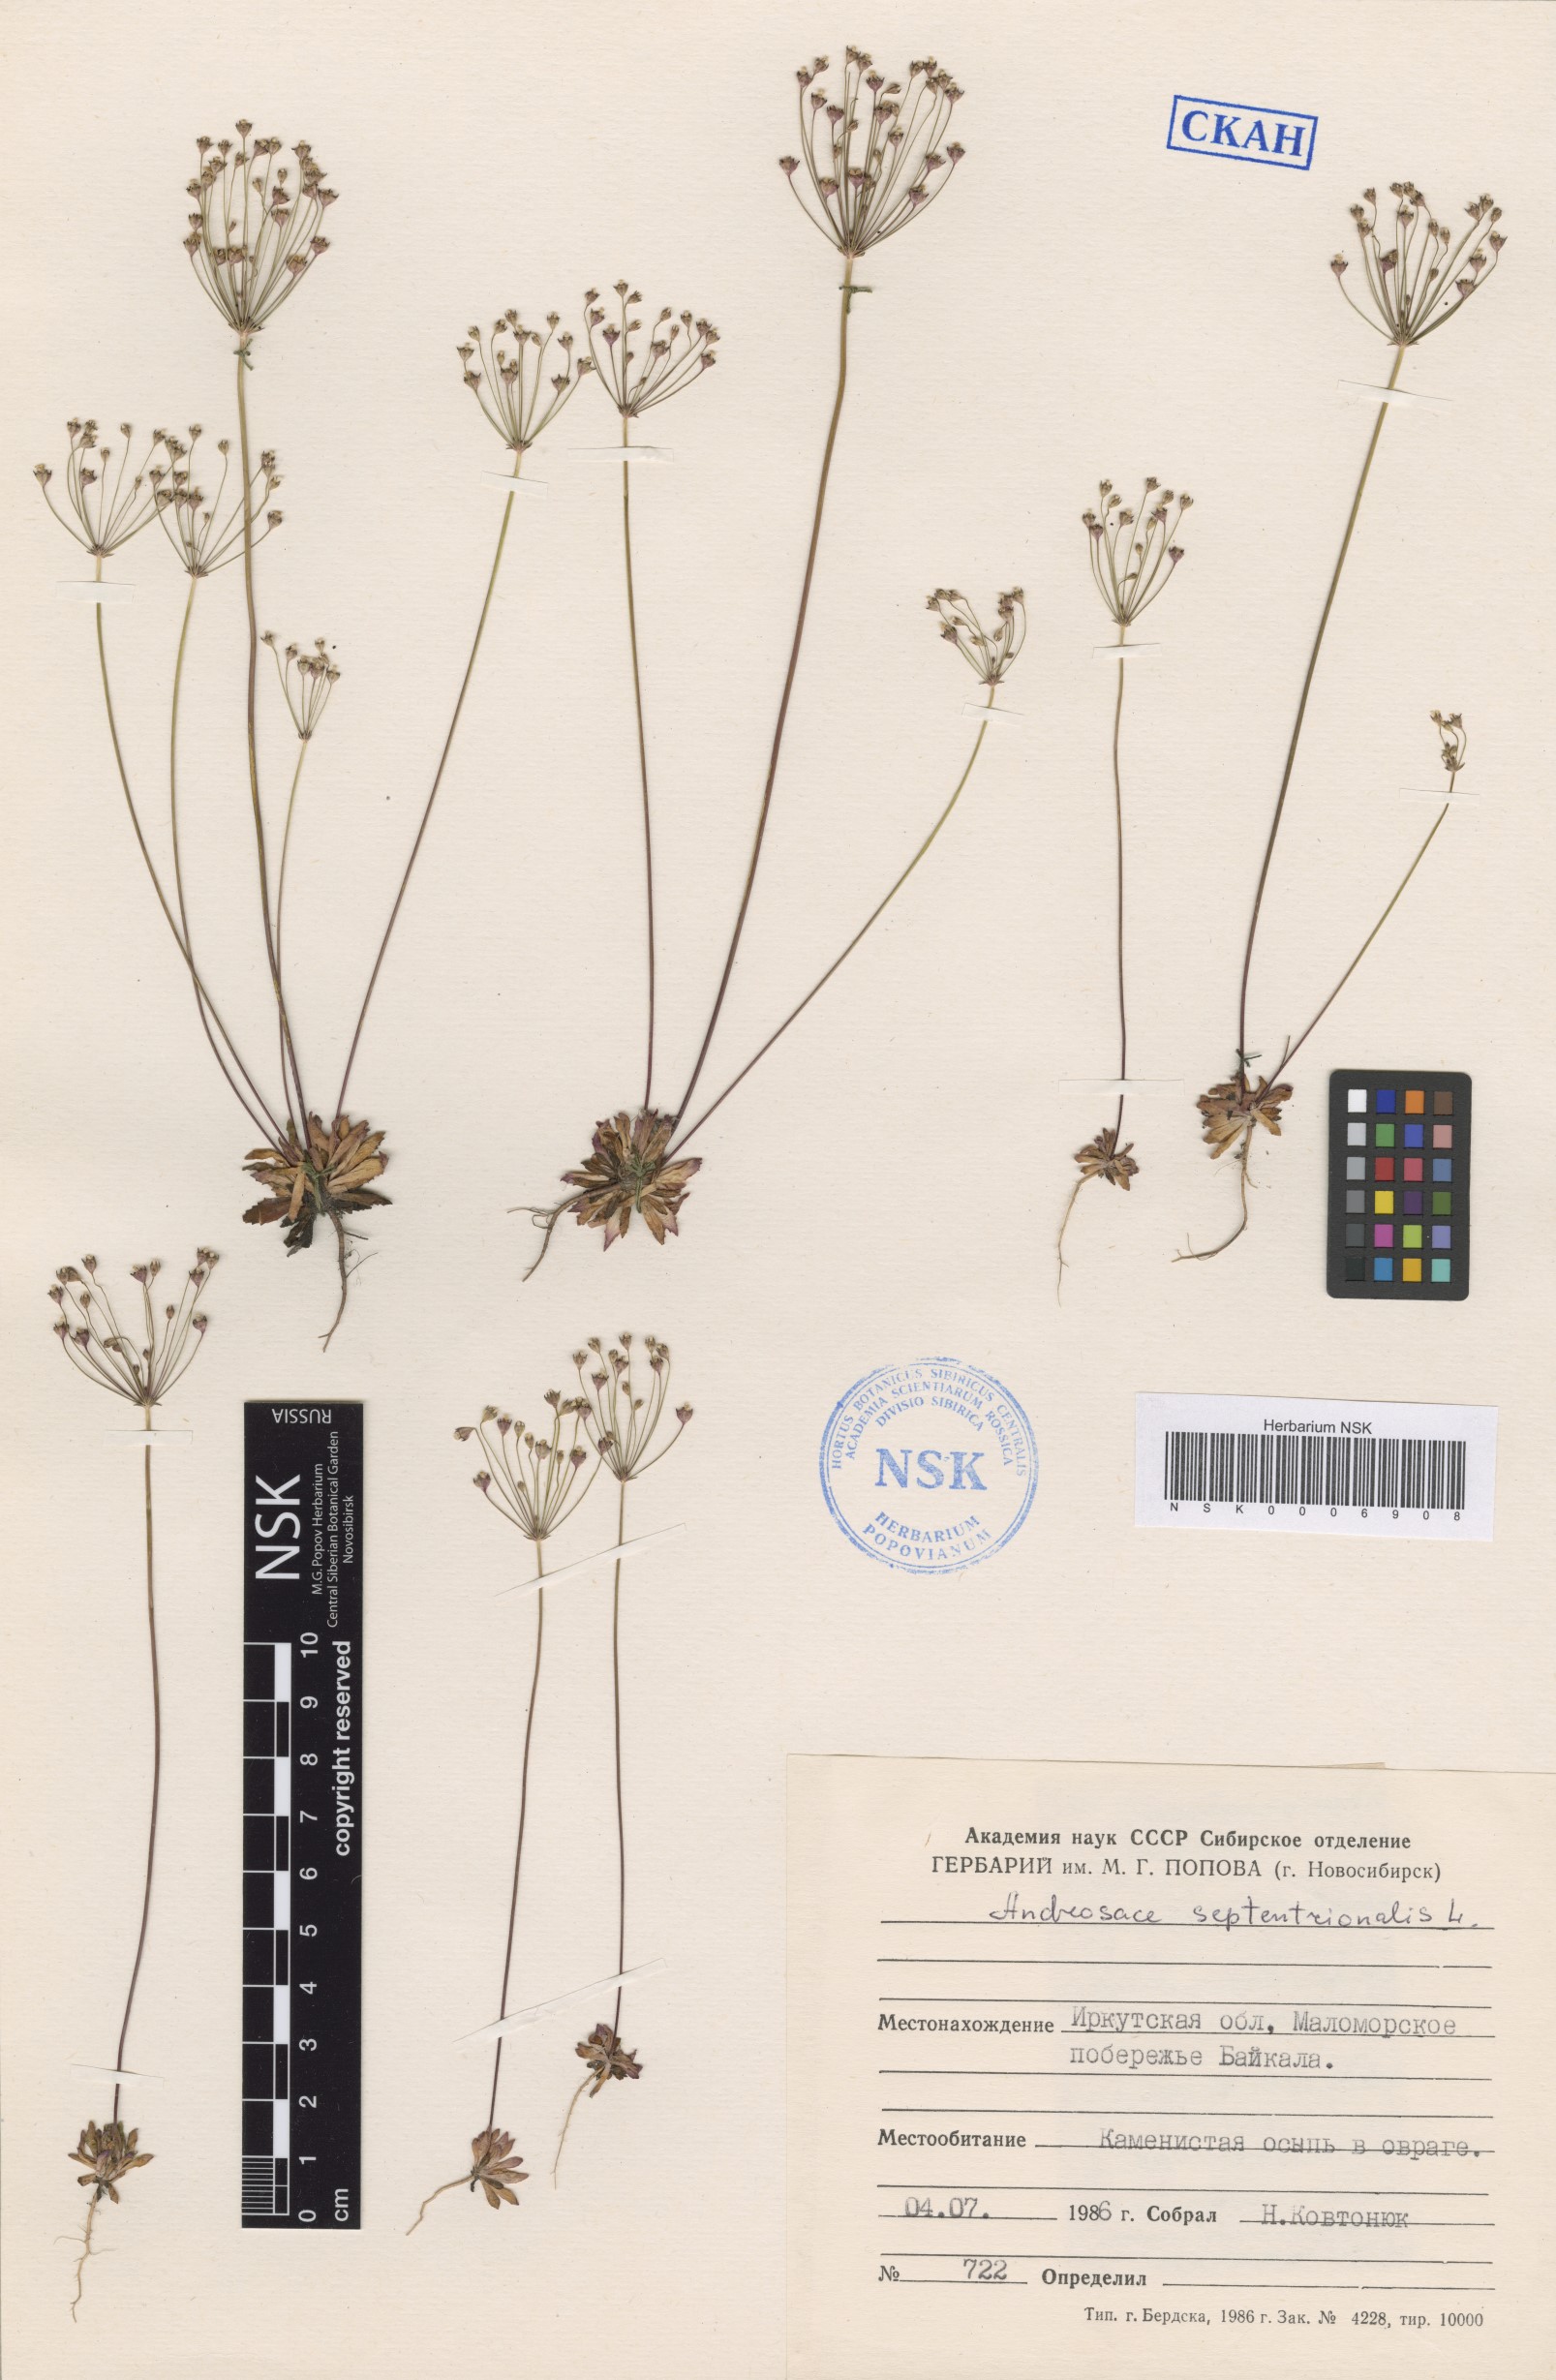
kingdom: Plantae
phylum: Tracheophyta
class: Magnoliopsida
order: Ericales
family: Primulaceae
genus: Androsace
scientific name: Androsace septentrionalis
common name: Hairy northern fairy-candelabra
